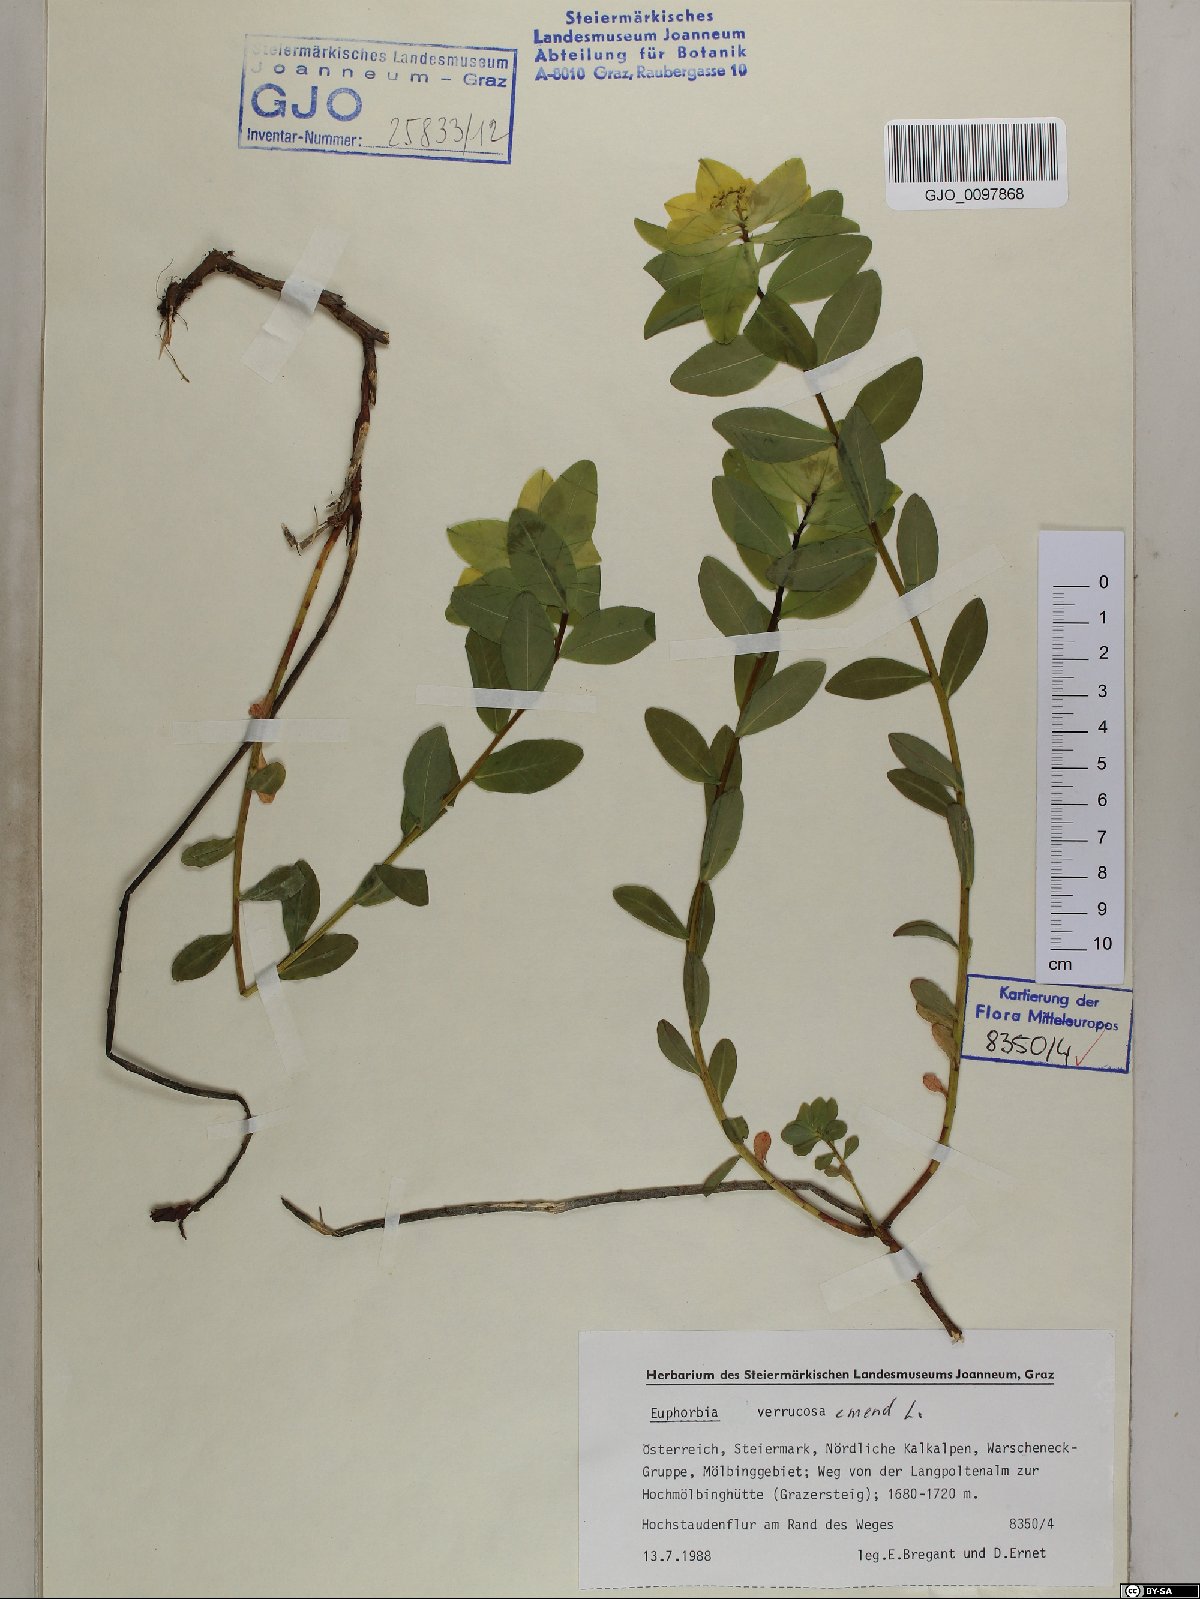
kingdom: Plantae
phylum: Tracheophyta
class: Magnoliopsida
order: Malpighiales
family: Euphorbiaceae
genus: Euphorbia
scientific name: Euphorbia verrucosa
